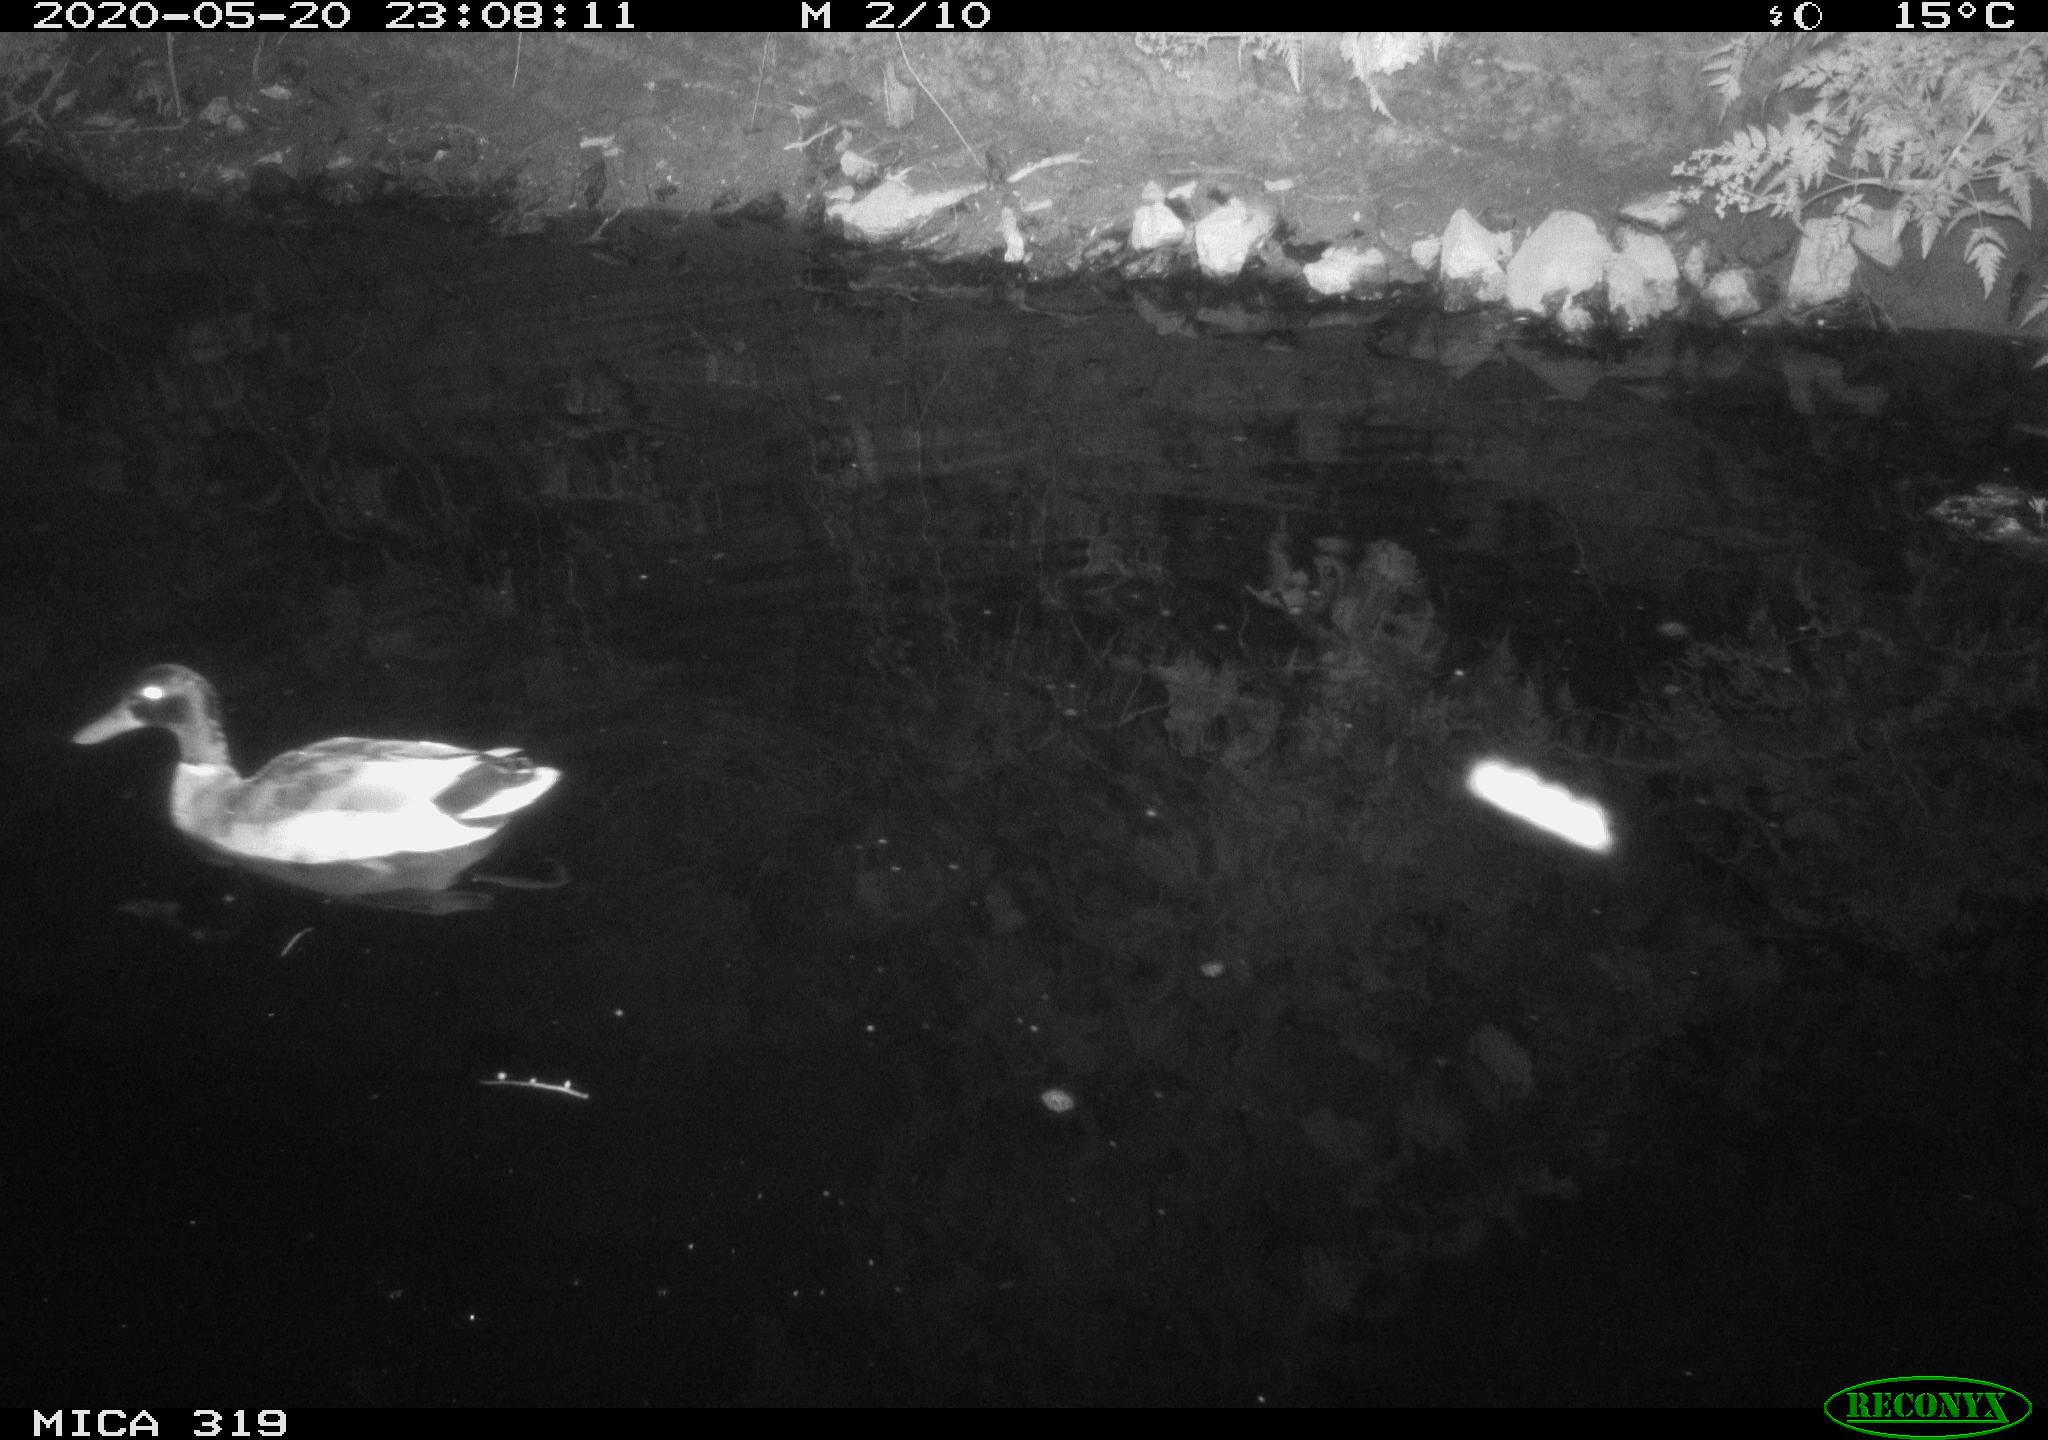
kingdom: Animalia
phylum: Chordata
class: Aves
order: Anseriformes
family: Anatidae
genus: Anas
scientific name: Anas platyrhynchos
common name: Mallard
